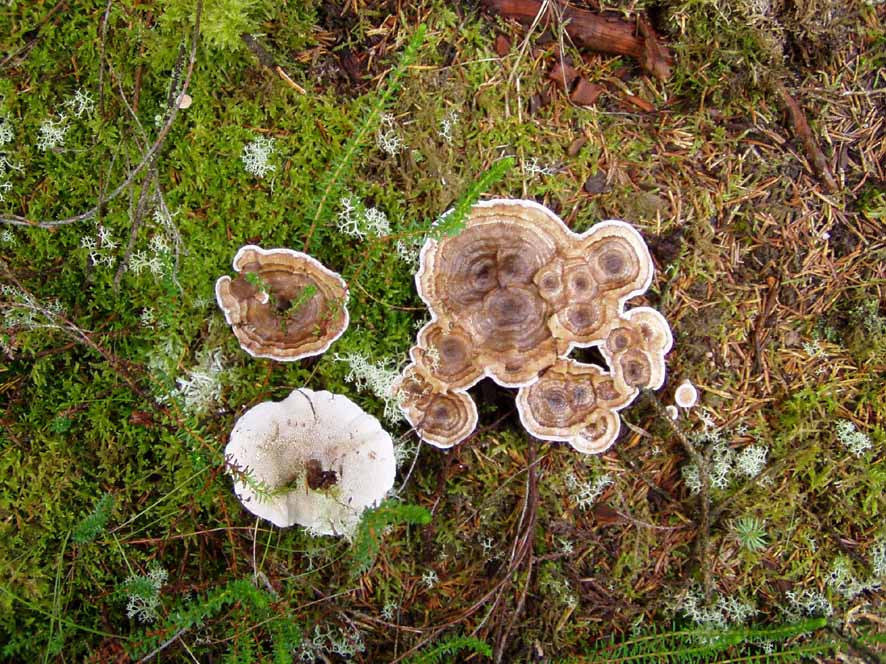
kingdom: Fungi
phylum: Basidiomycota
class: Agaricomycetes
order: Thelephorales
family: Thelephoraceae
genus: Phellodon
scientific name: Phellodon tomentosus
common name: tragtformet duftpigsvamp
